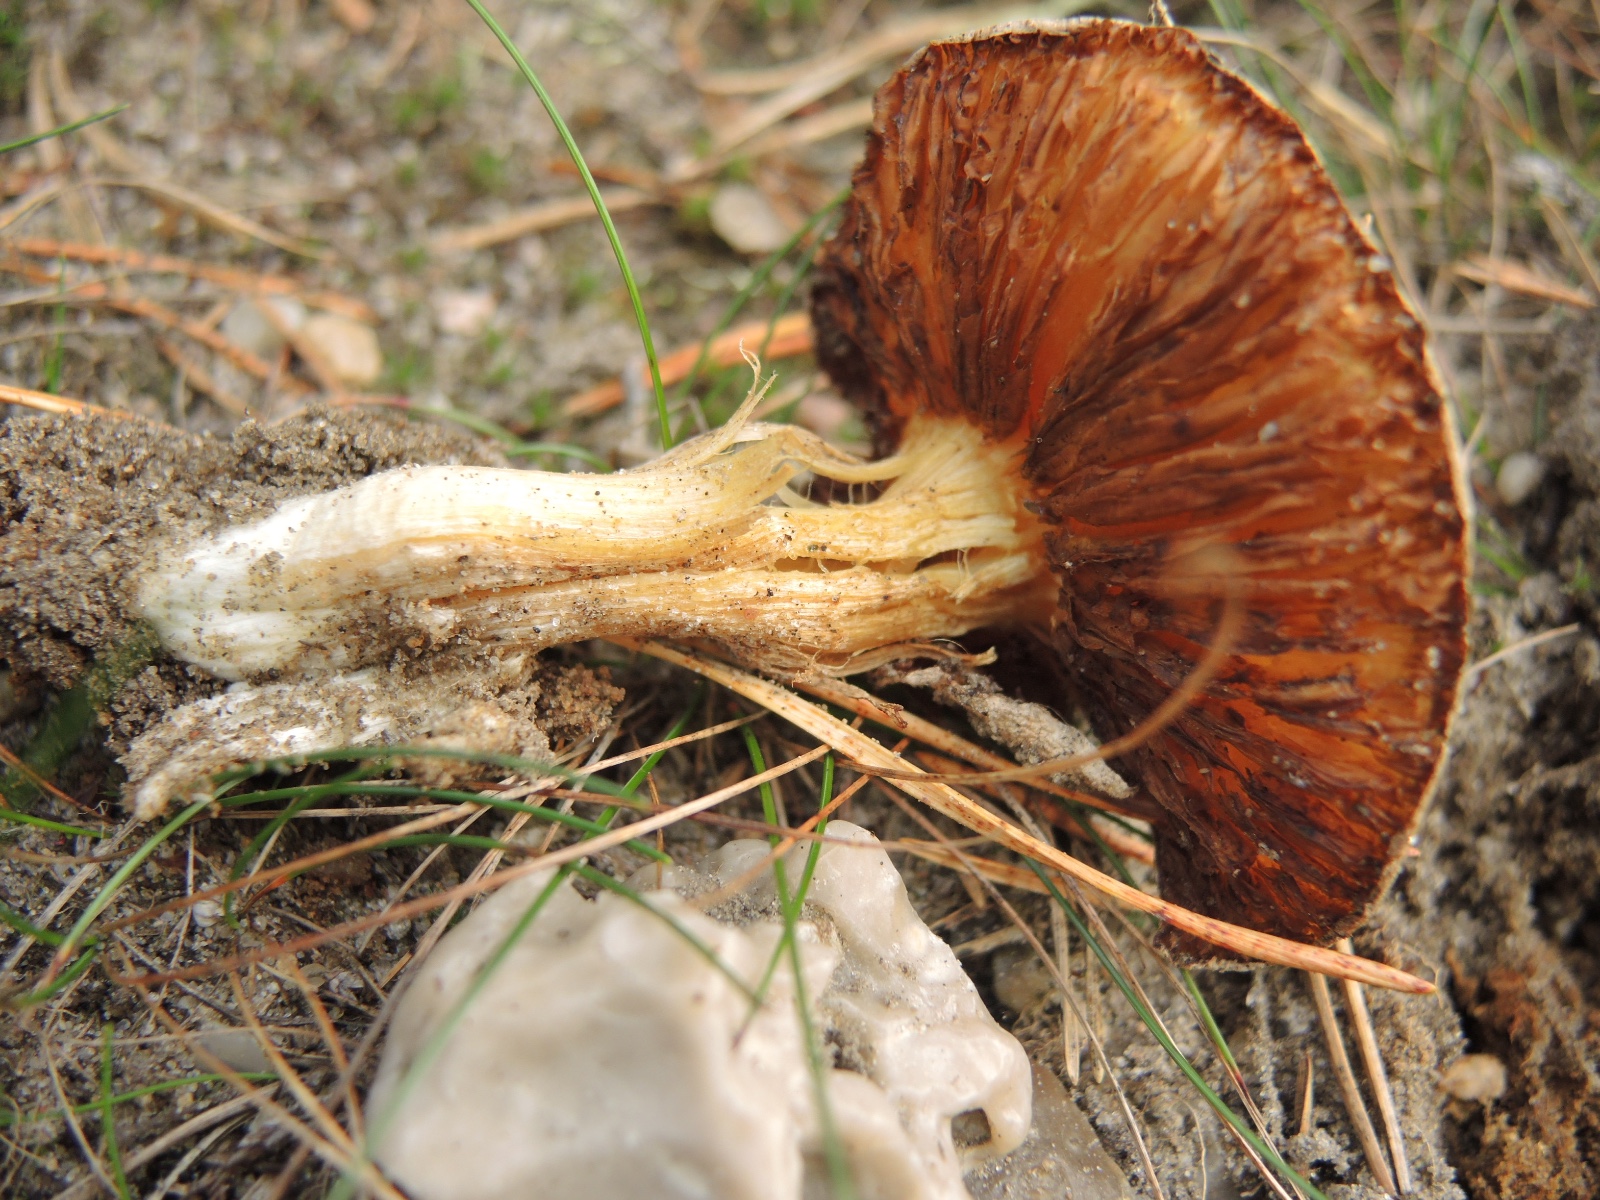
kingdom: Fungi
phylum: Basidiomycota
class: Agaricomycetes
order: Agaricales
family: Inocybaceae
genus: Inocybe
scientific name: Inocybe sambucina
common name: hyldehvid trævlhat
